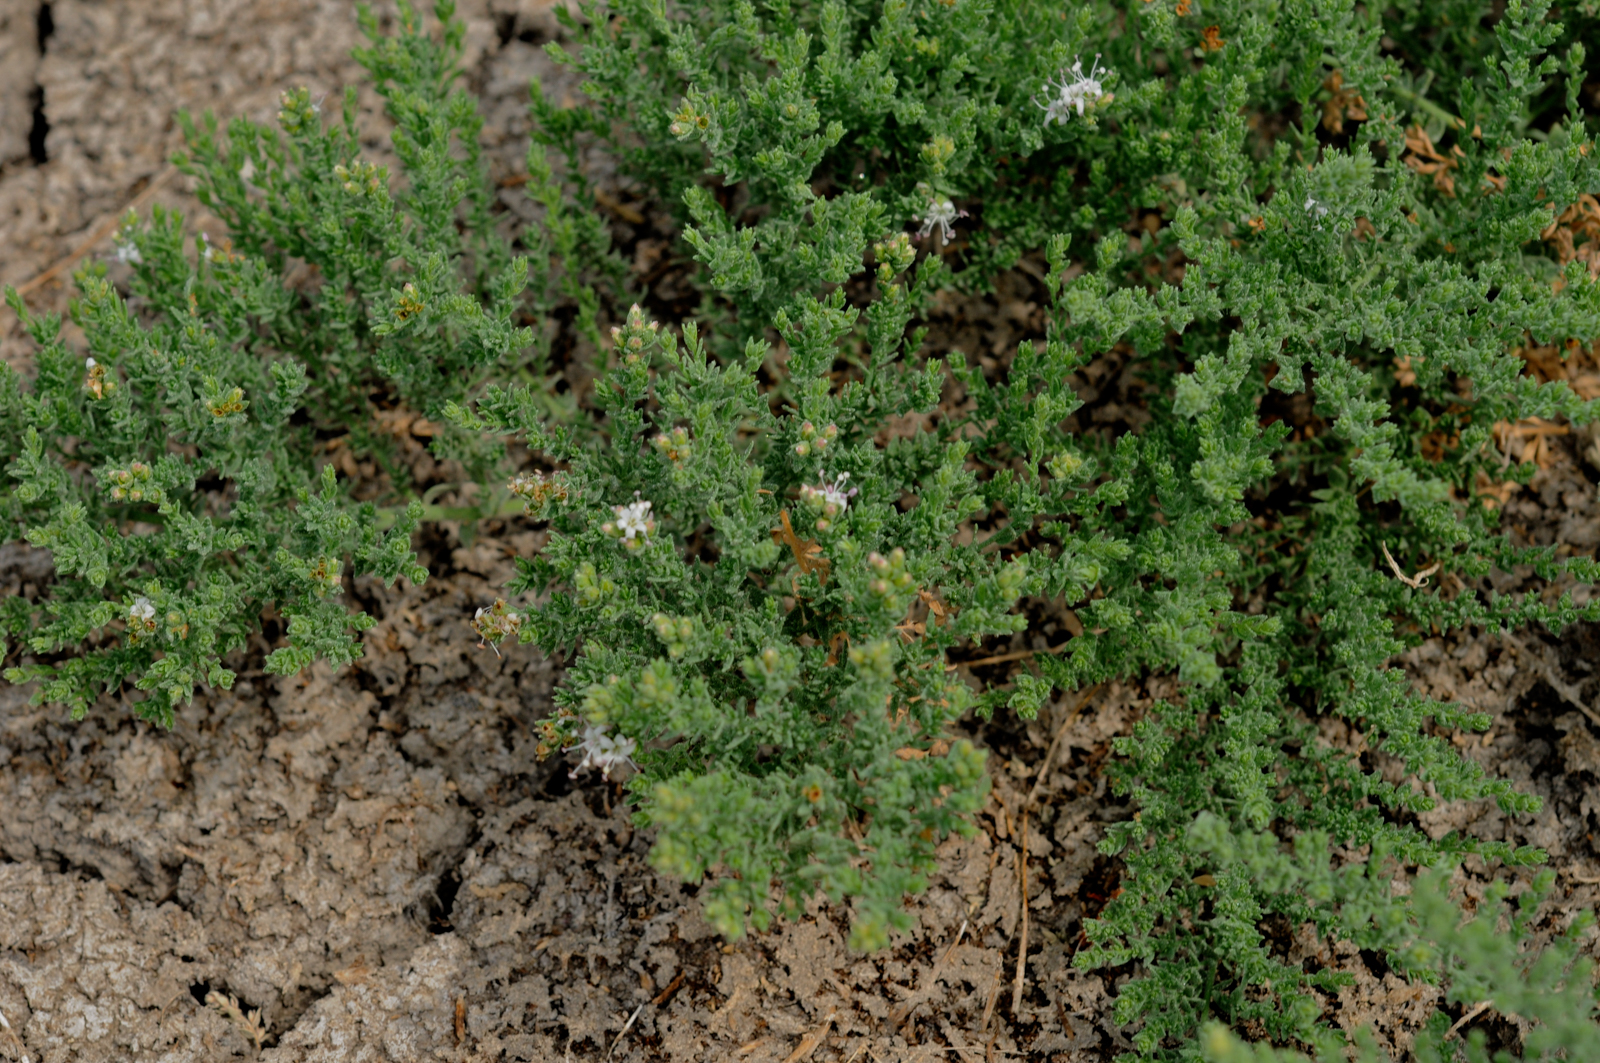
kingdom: Plantae
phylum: Tracheophyta
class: Magnoliopsida
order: Solanales
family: Convolvulaceae
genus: Cressa
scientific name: Cressa cretica
